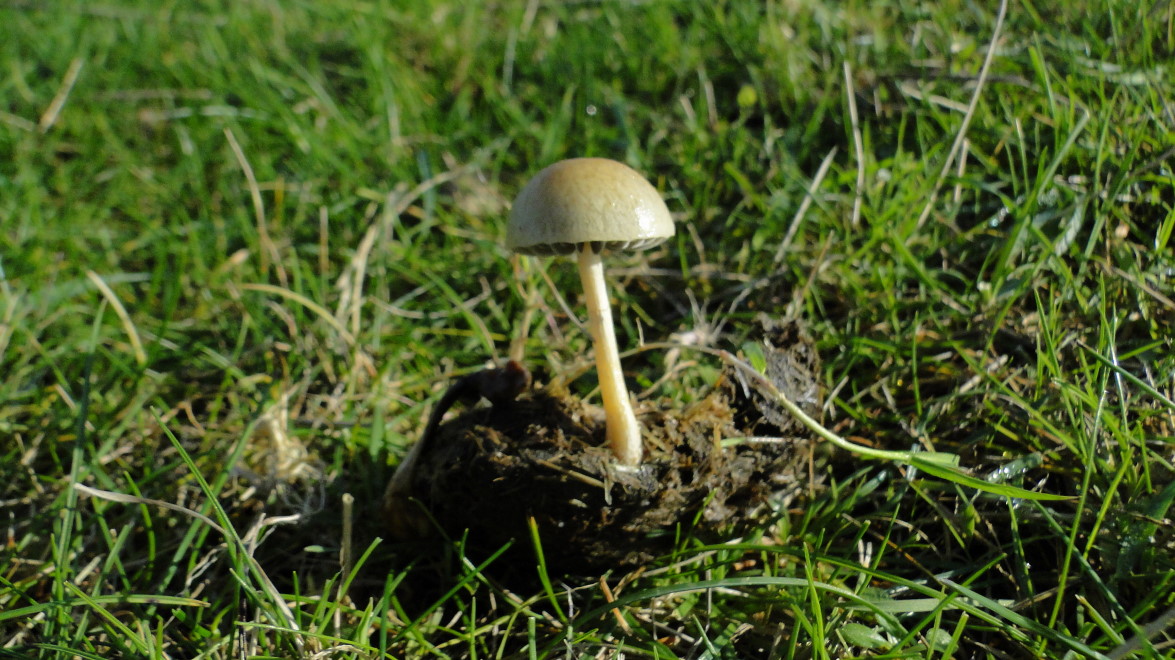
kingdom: Fungi
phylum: Basidiomycota
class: Agaricomycetes
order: Agaricales
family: Strophariaceae
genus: Protostropharia
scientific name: Protostropharia semiglobata
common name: halvkugleformet bredblad
